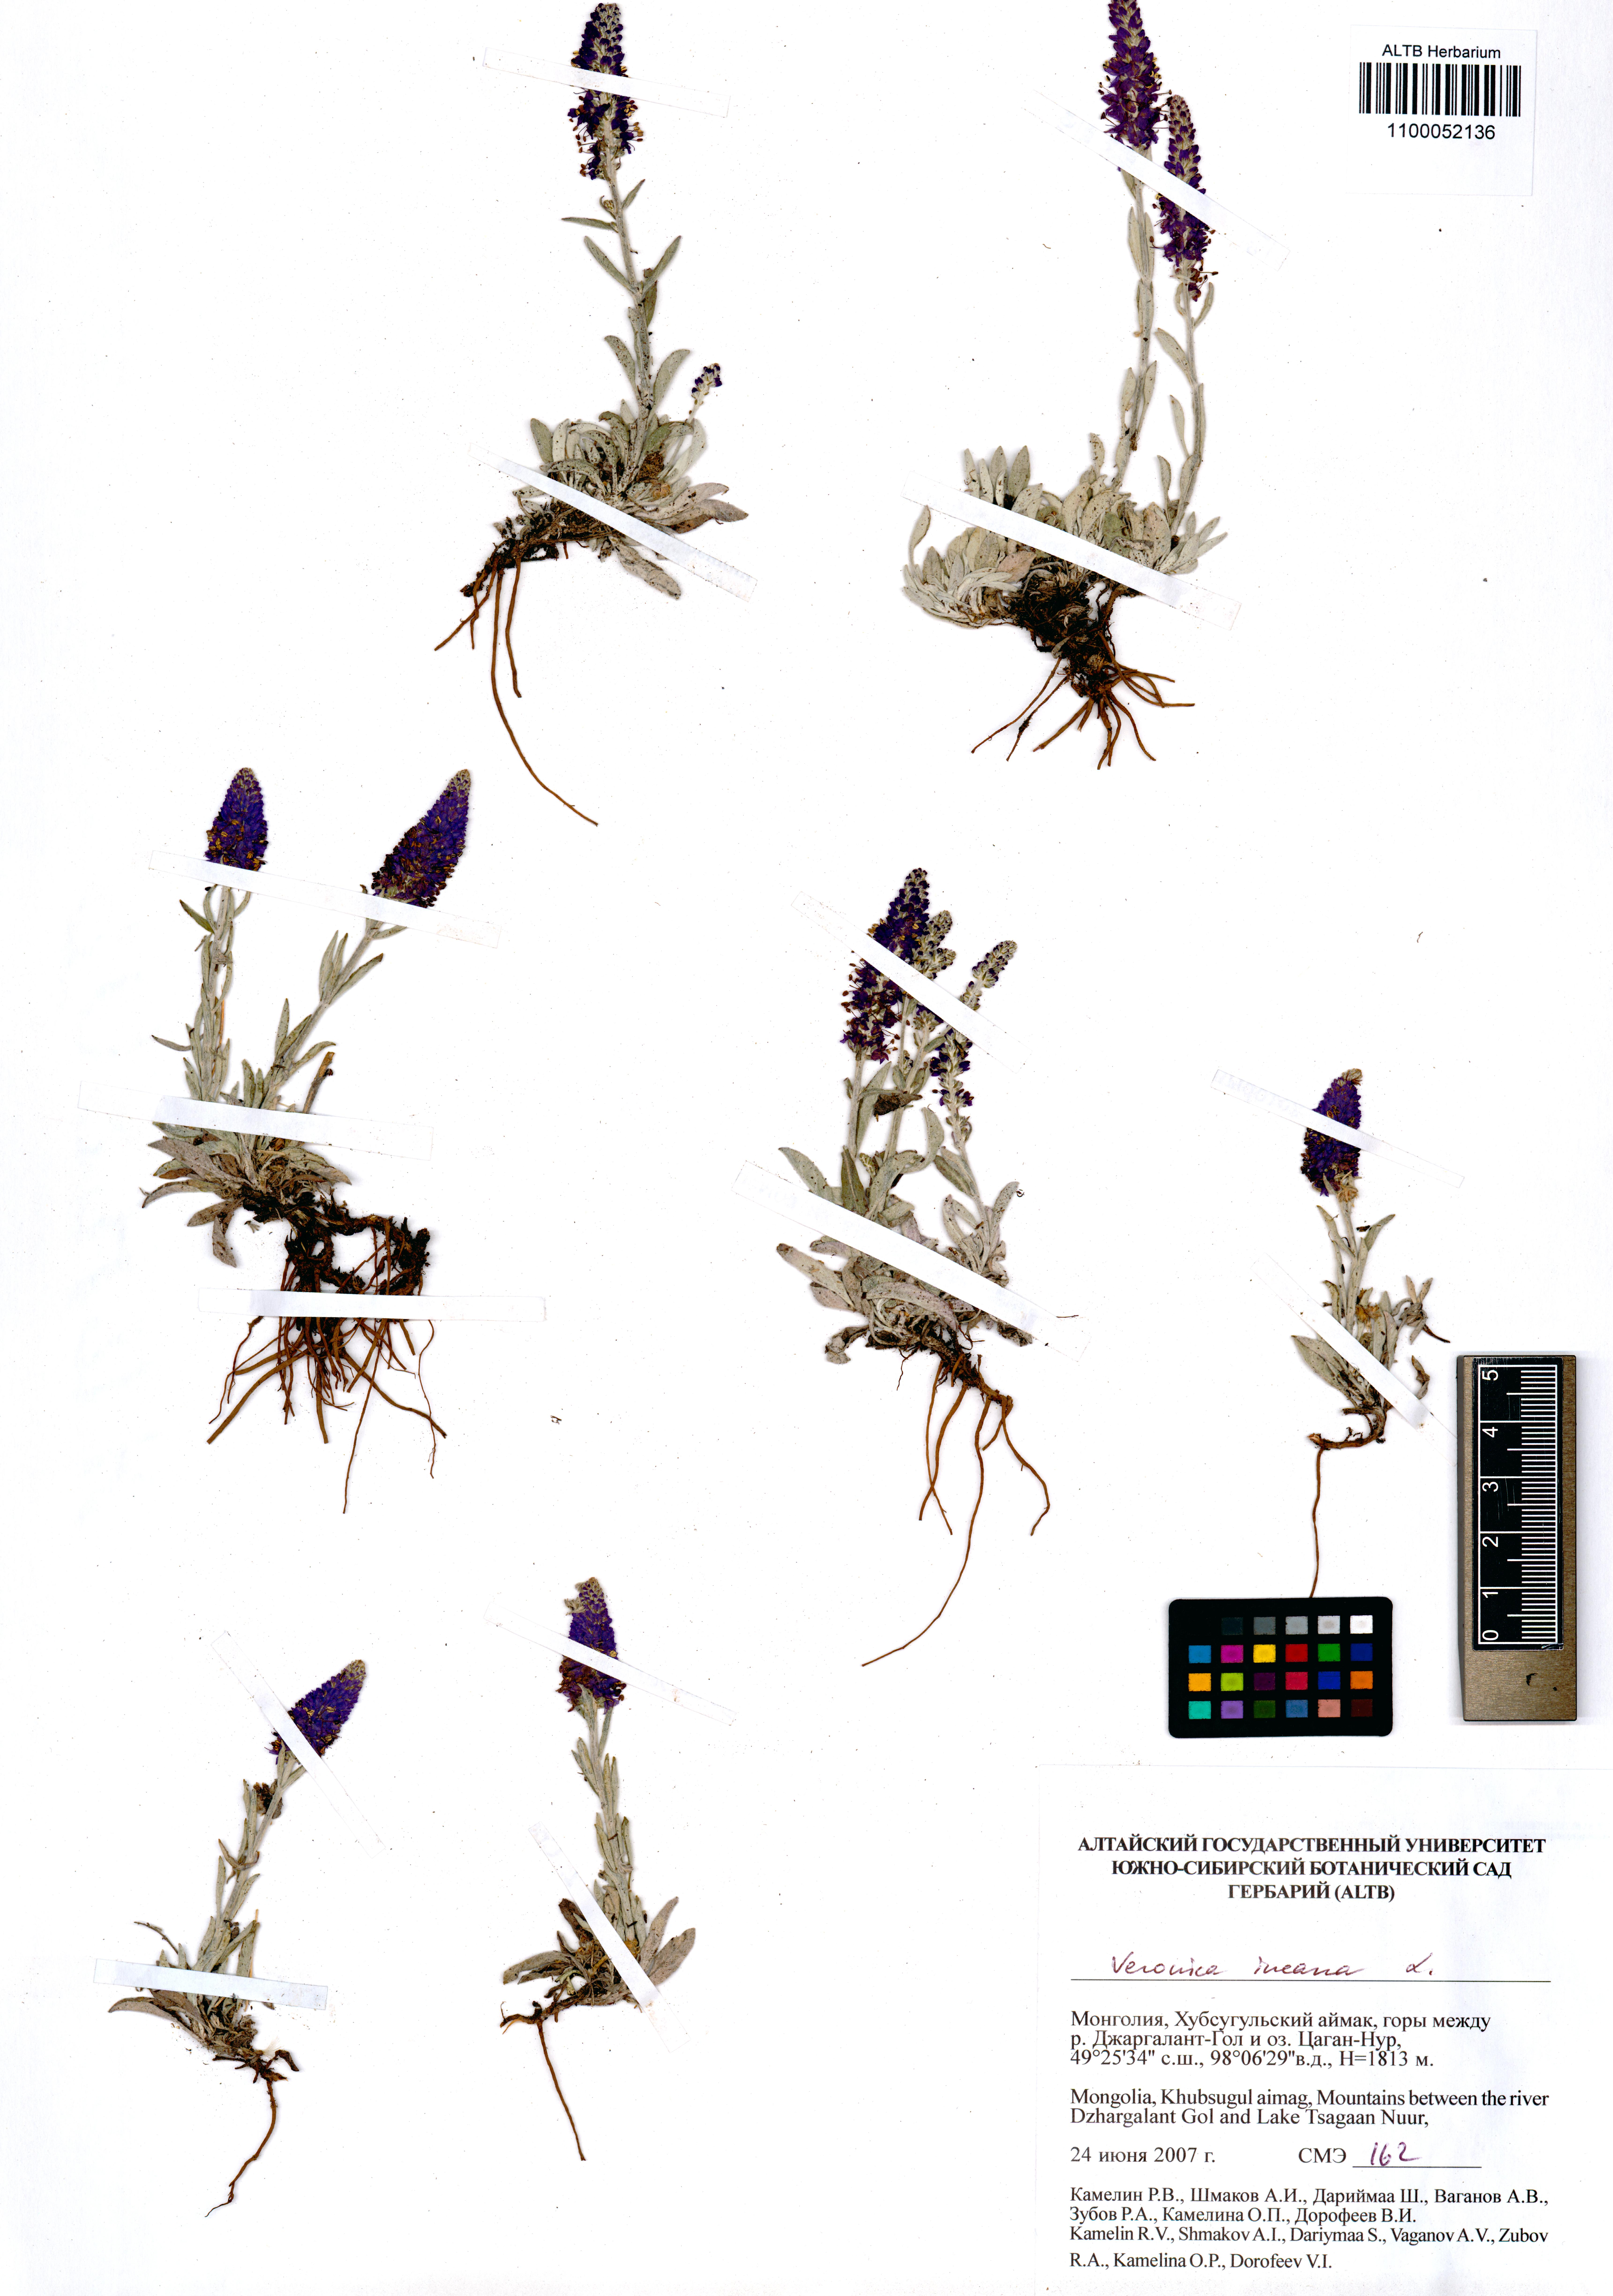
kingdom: Plantae
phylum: Tracheophyta
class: Magnoliopsida
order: Lamiales
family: Plantaginaceae
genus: Veronica
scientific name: Veronica incana
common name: Silver speedwell
